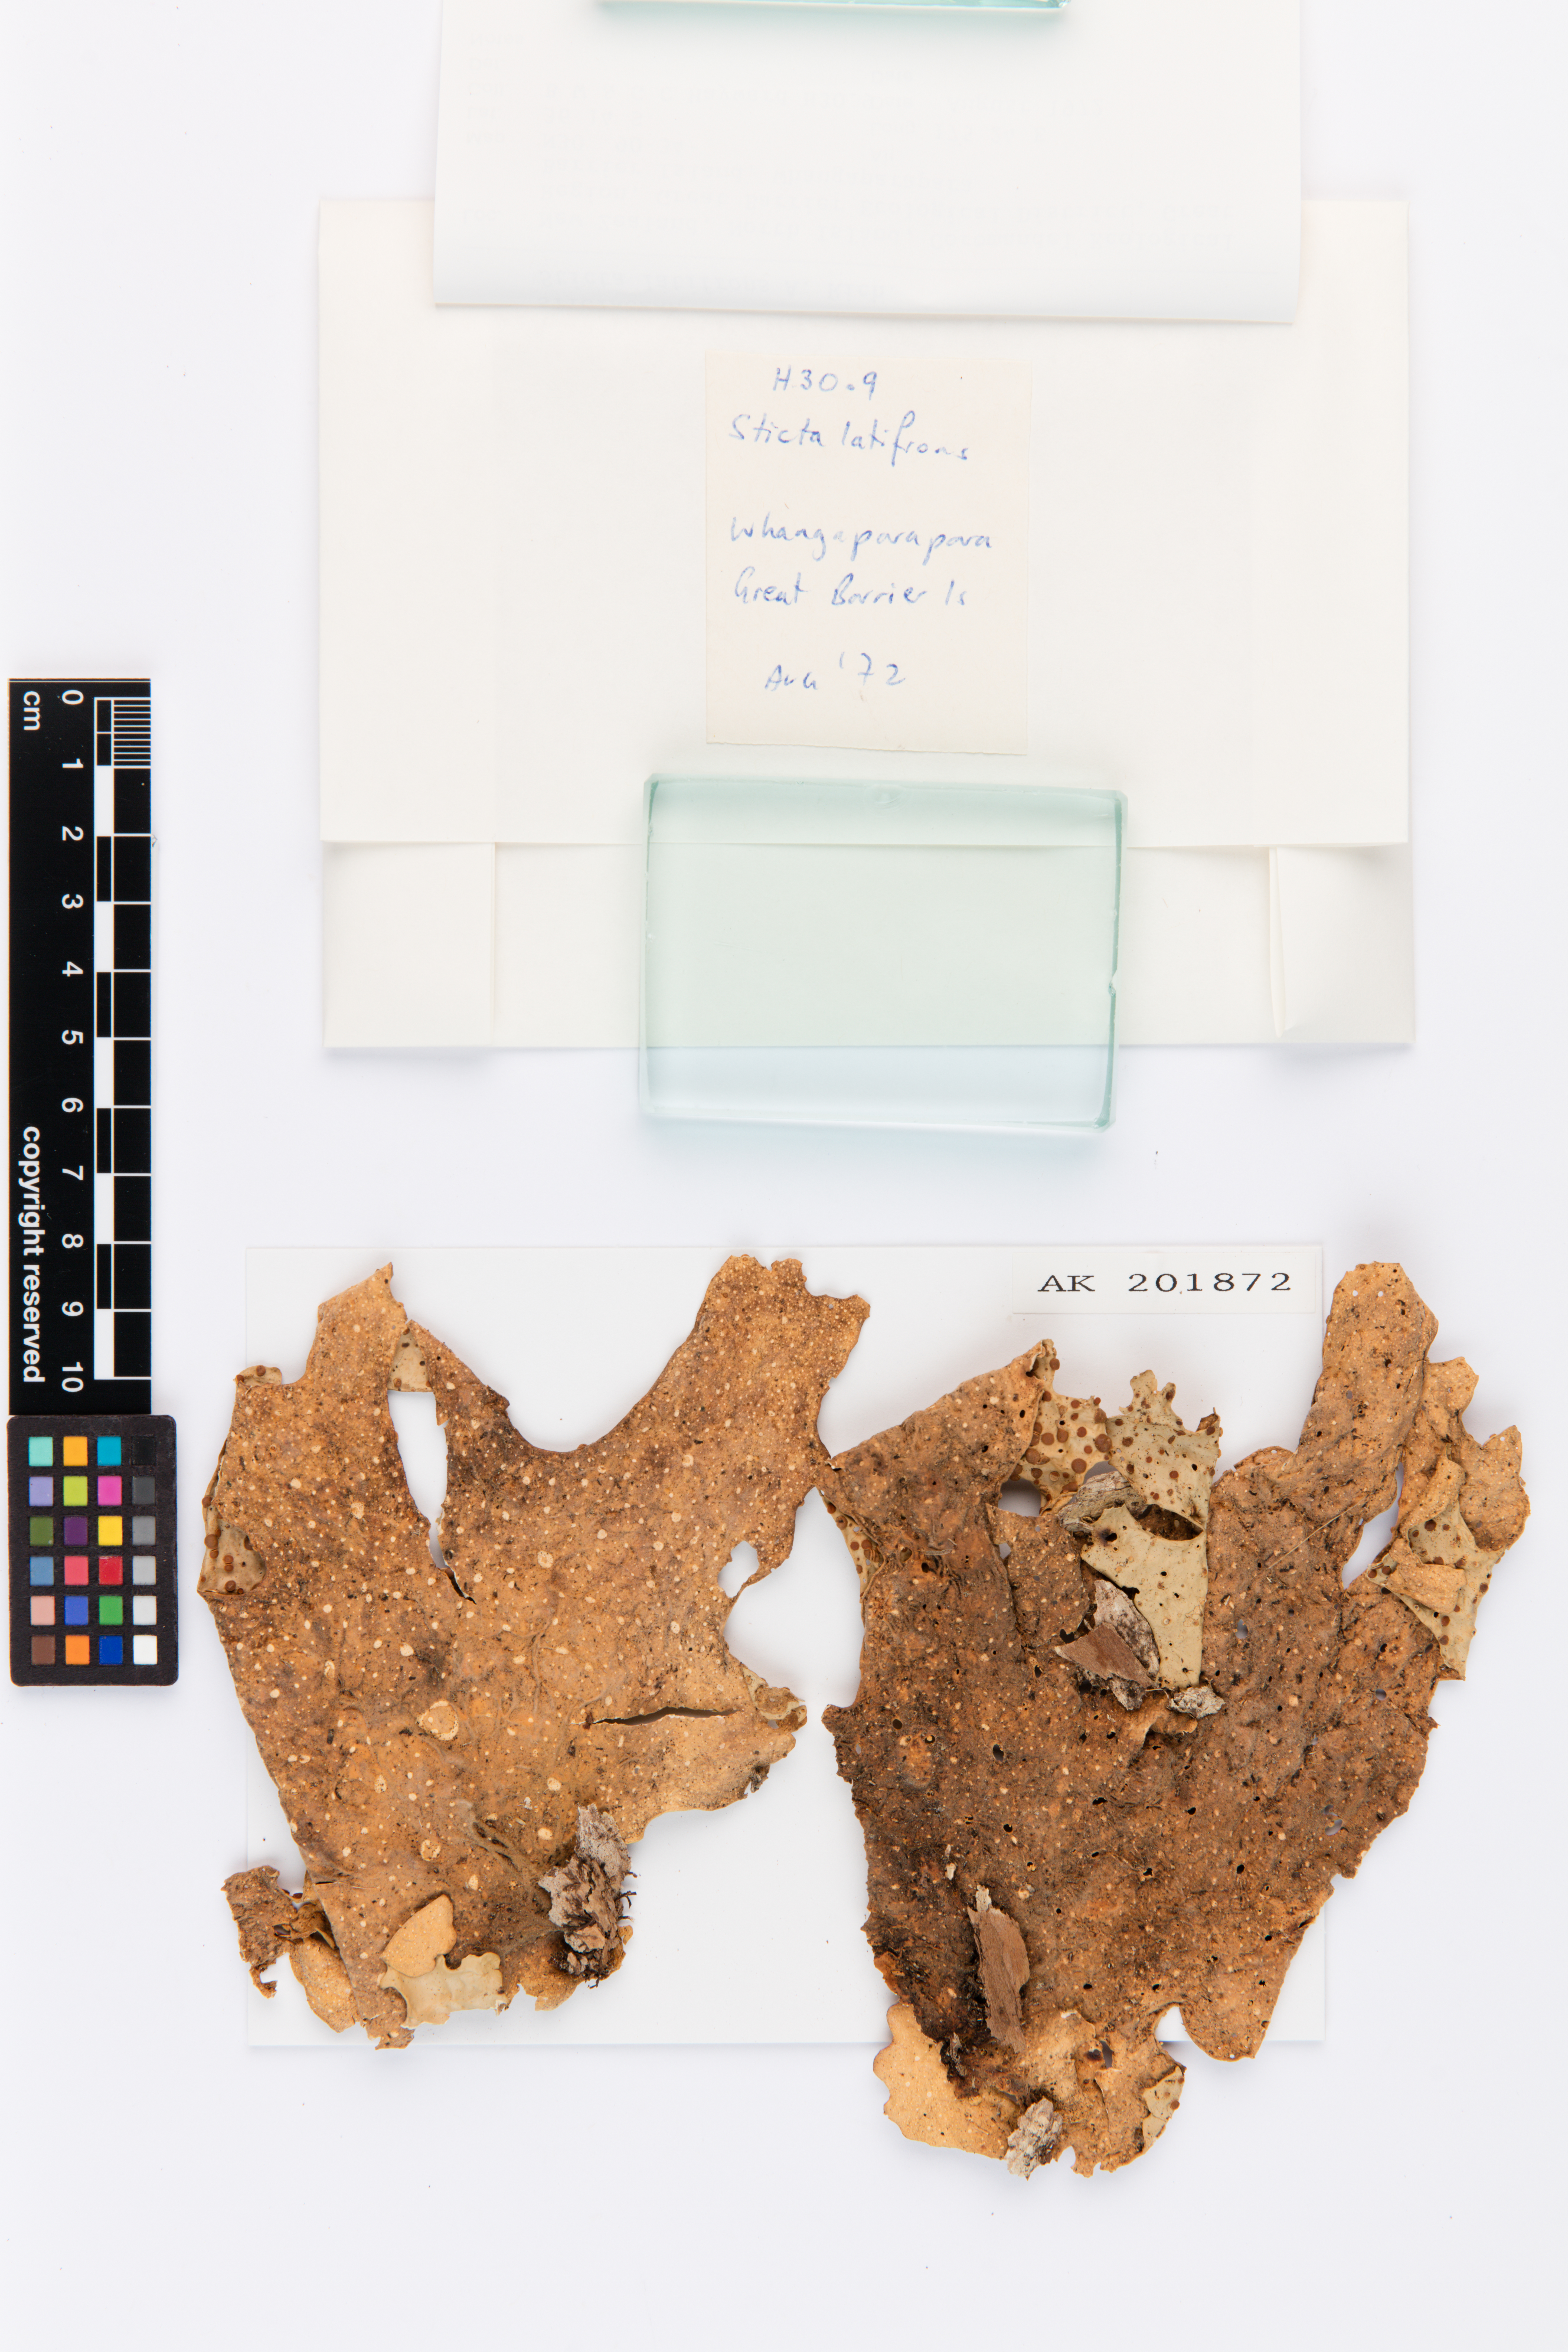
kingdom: Fungi
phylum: Ascomycota
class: Lecanoromycetes
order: Peltigerales
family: Lobariaceae
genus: Sticta
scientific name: Sticta latifrons
